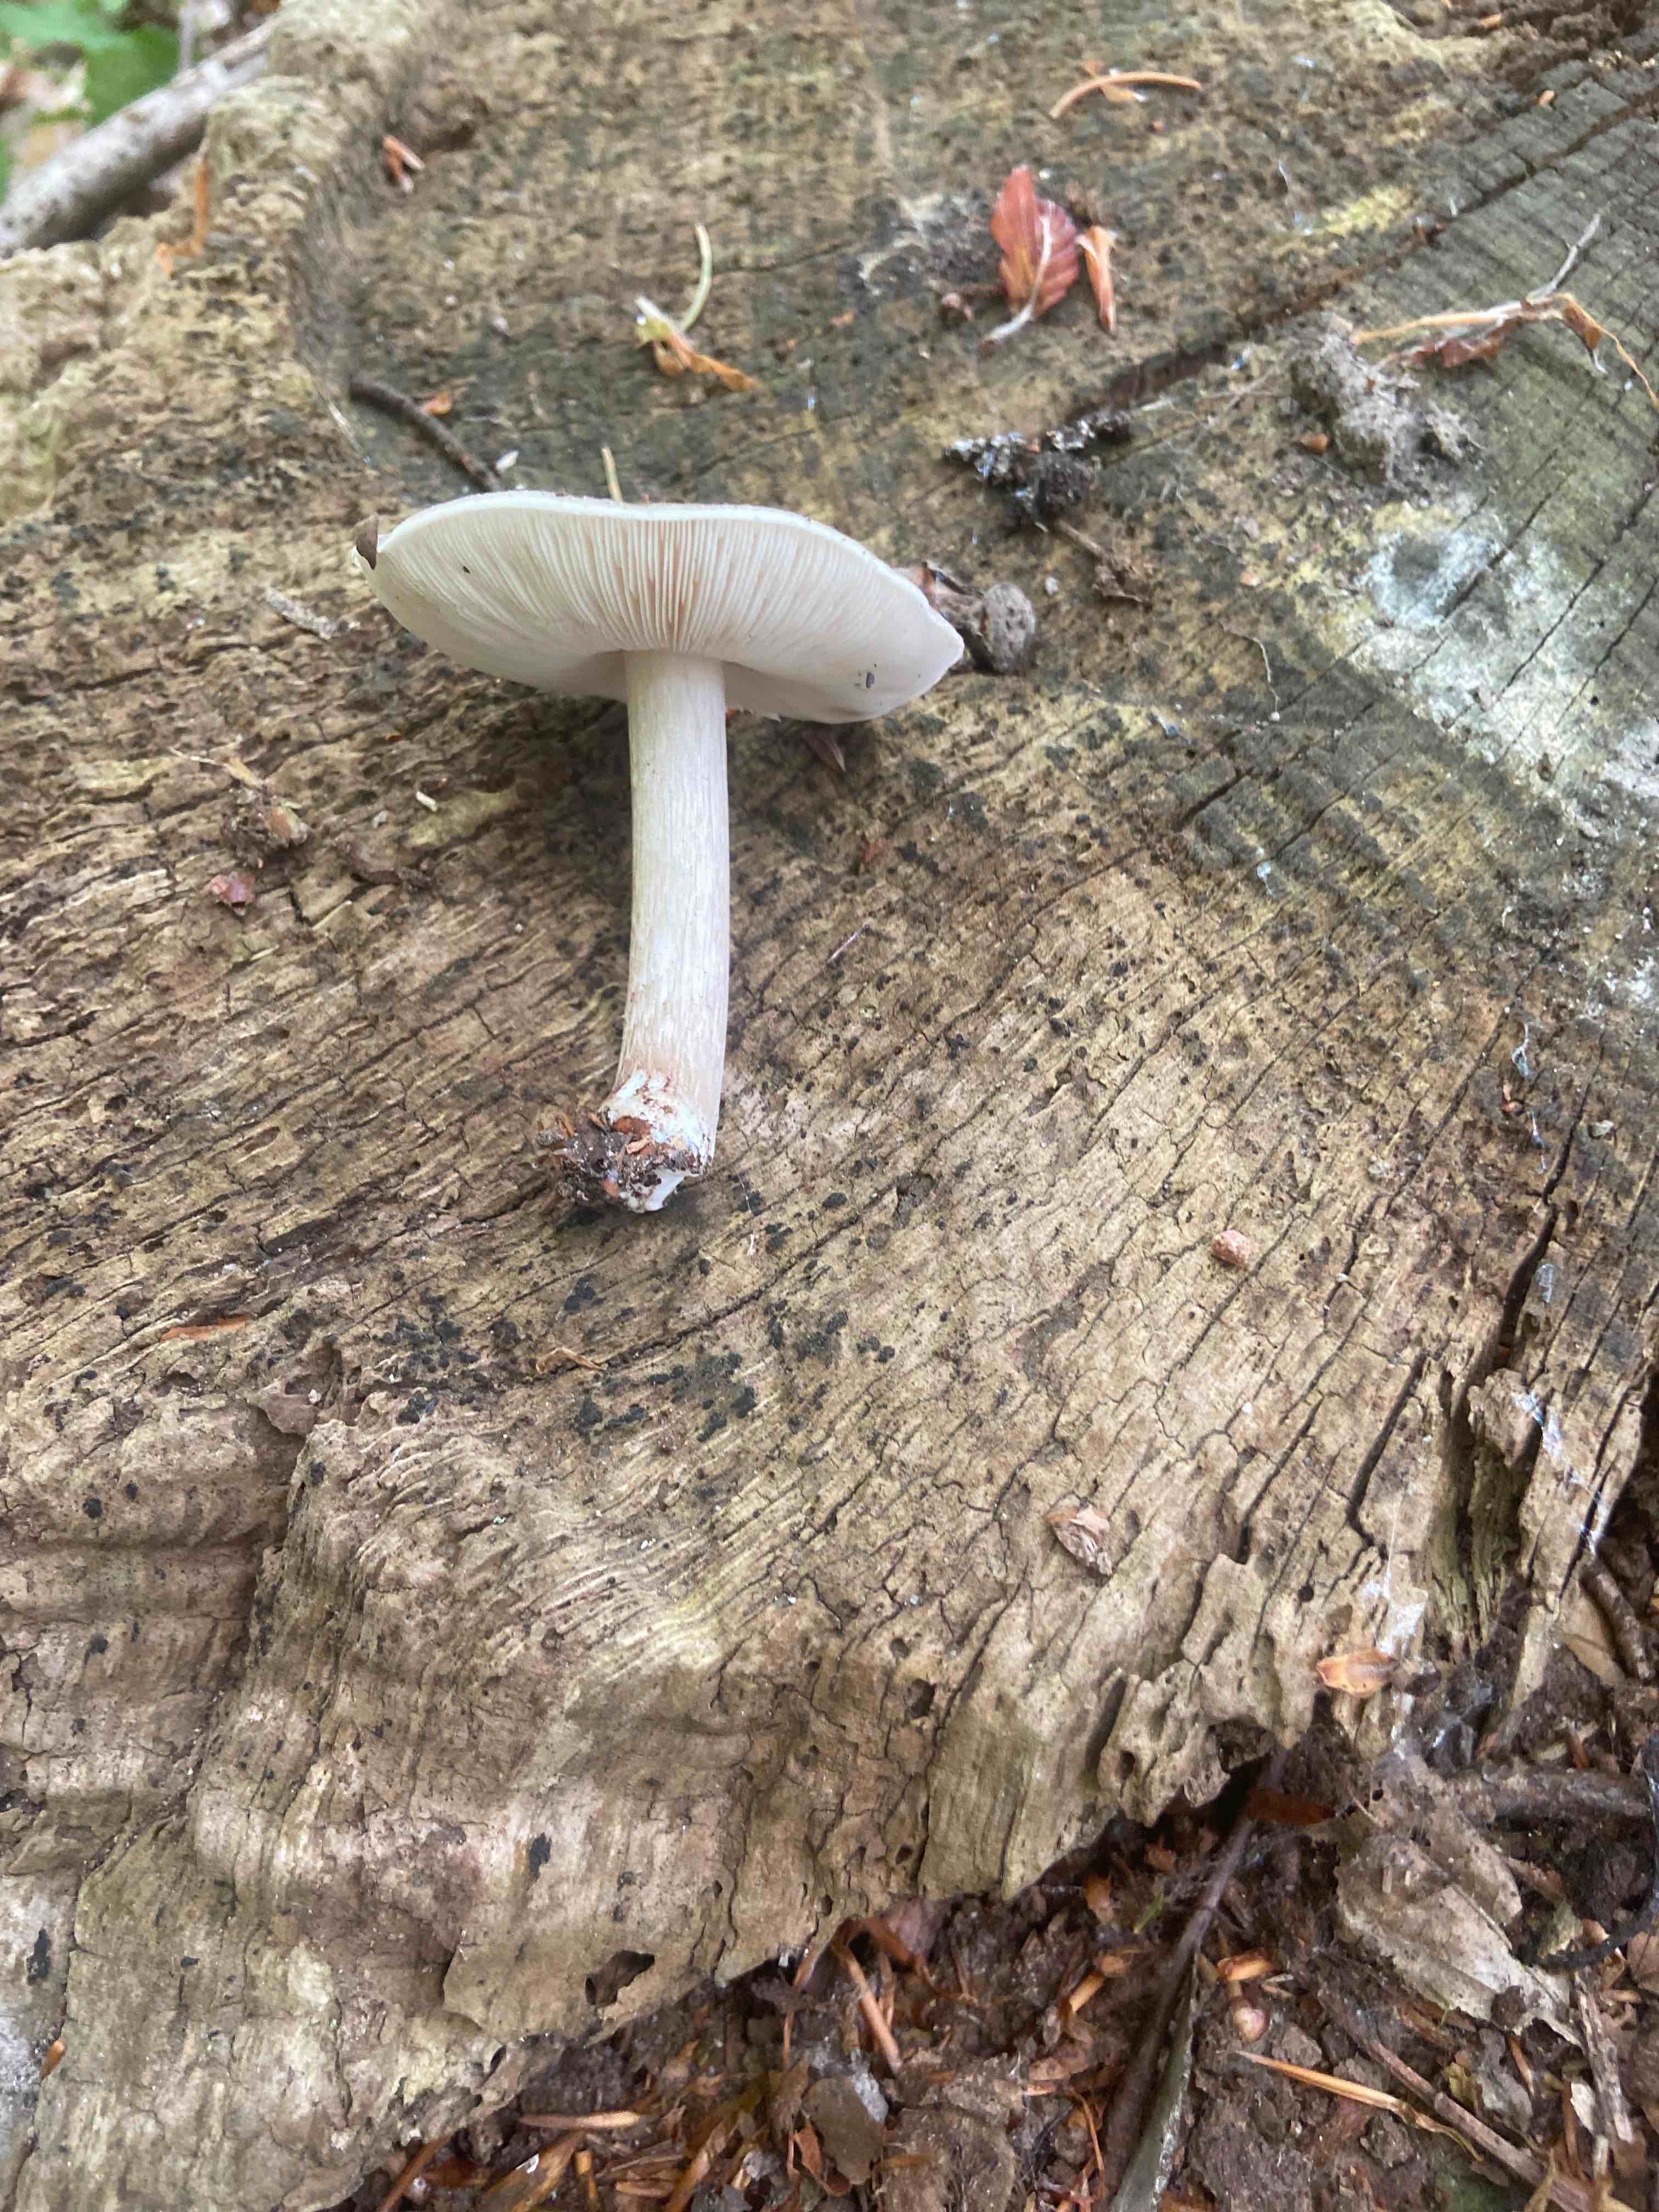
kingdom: Fungi
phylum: Basidiomycota
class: Agaricomycetes
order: Agaricales
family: Pluteaceae
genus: Pluteus
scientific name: Pluteus cervinus
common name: sodfarvet skærmhat
